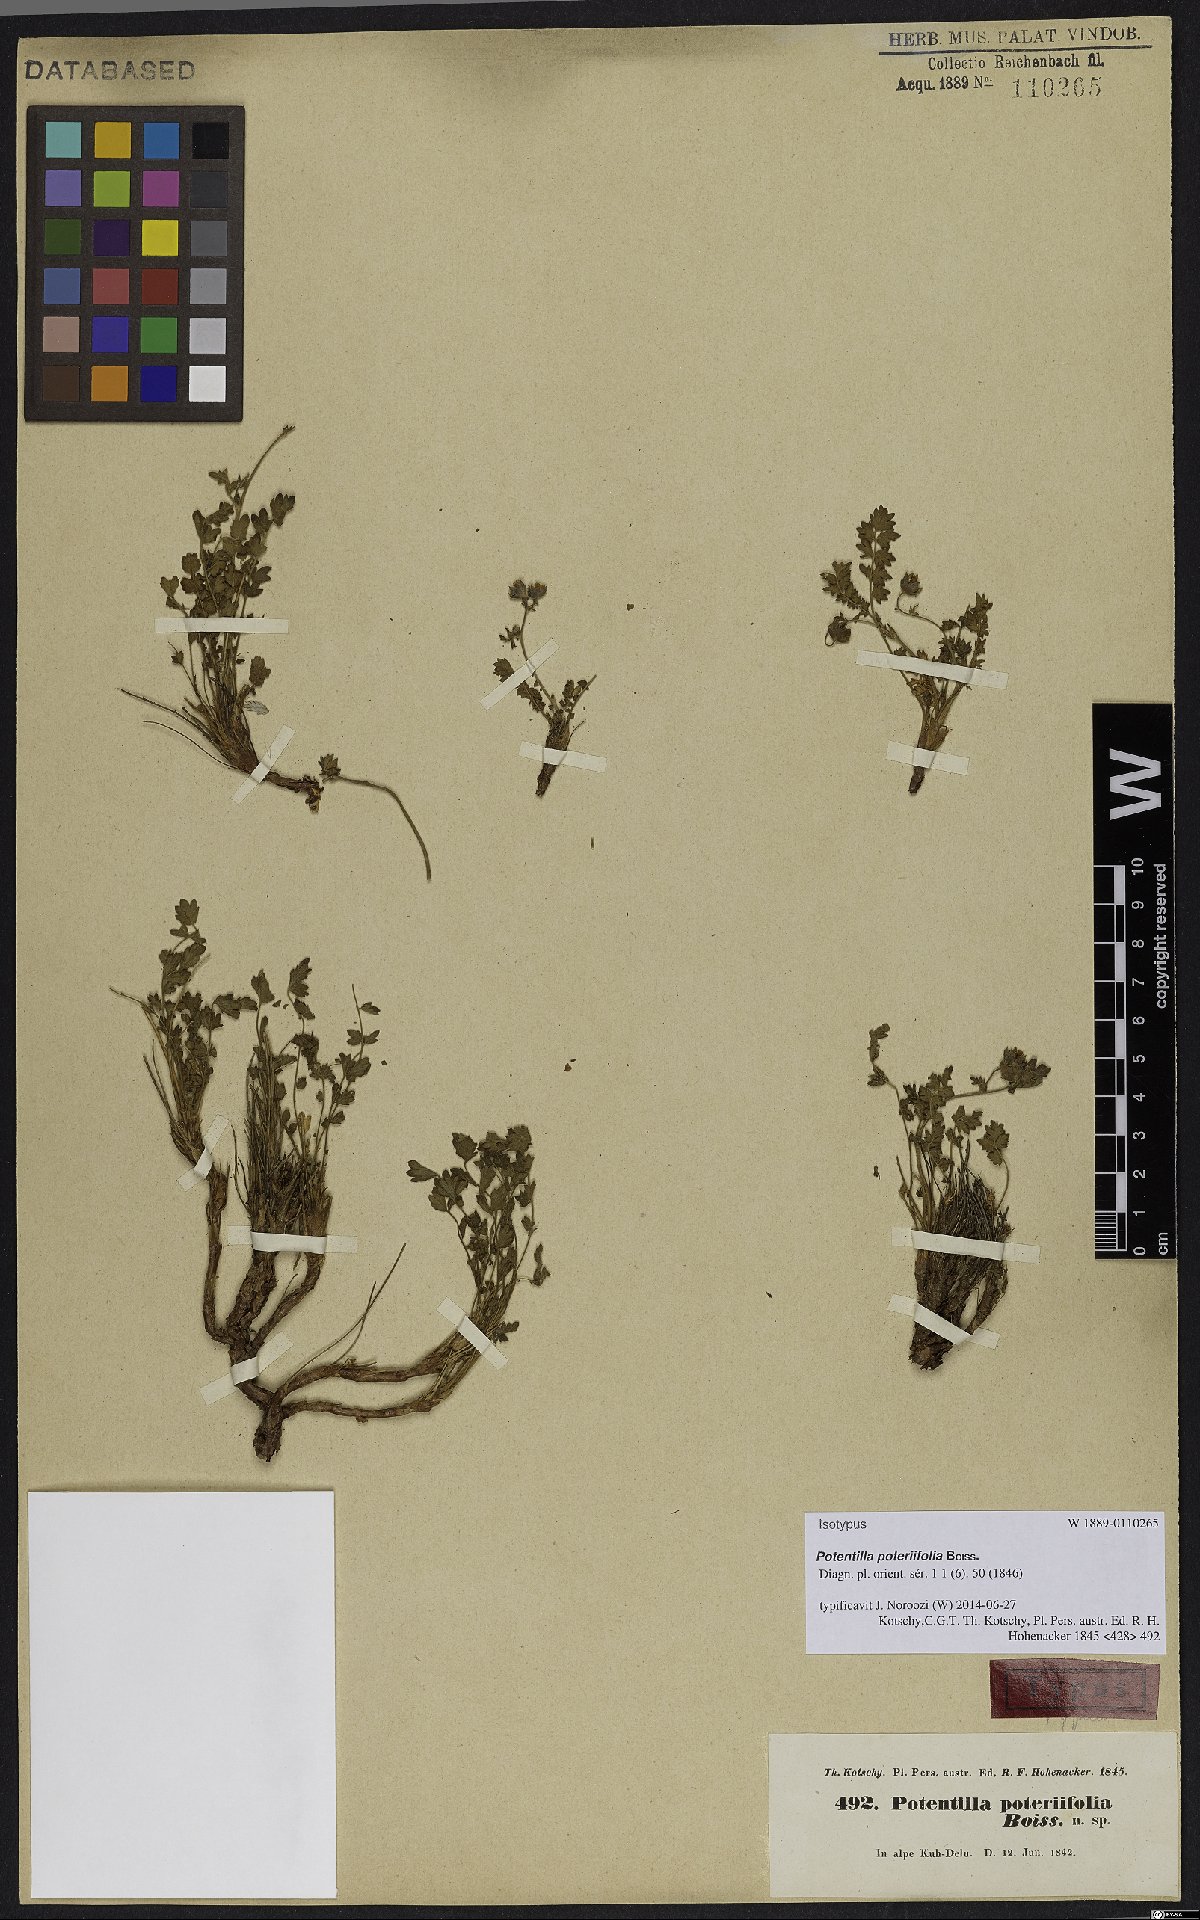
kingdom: Plantae
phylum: Tracheophyta
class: Magnoliopsida
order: Rosales
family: Rosaceae
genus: Drymocallis
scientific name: Drymocallis poteriifolia
